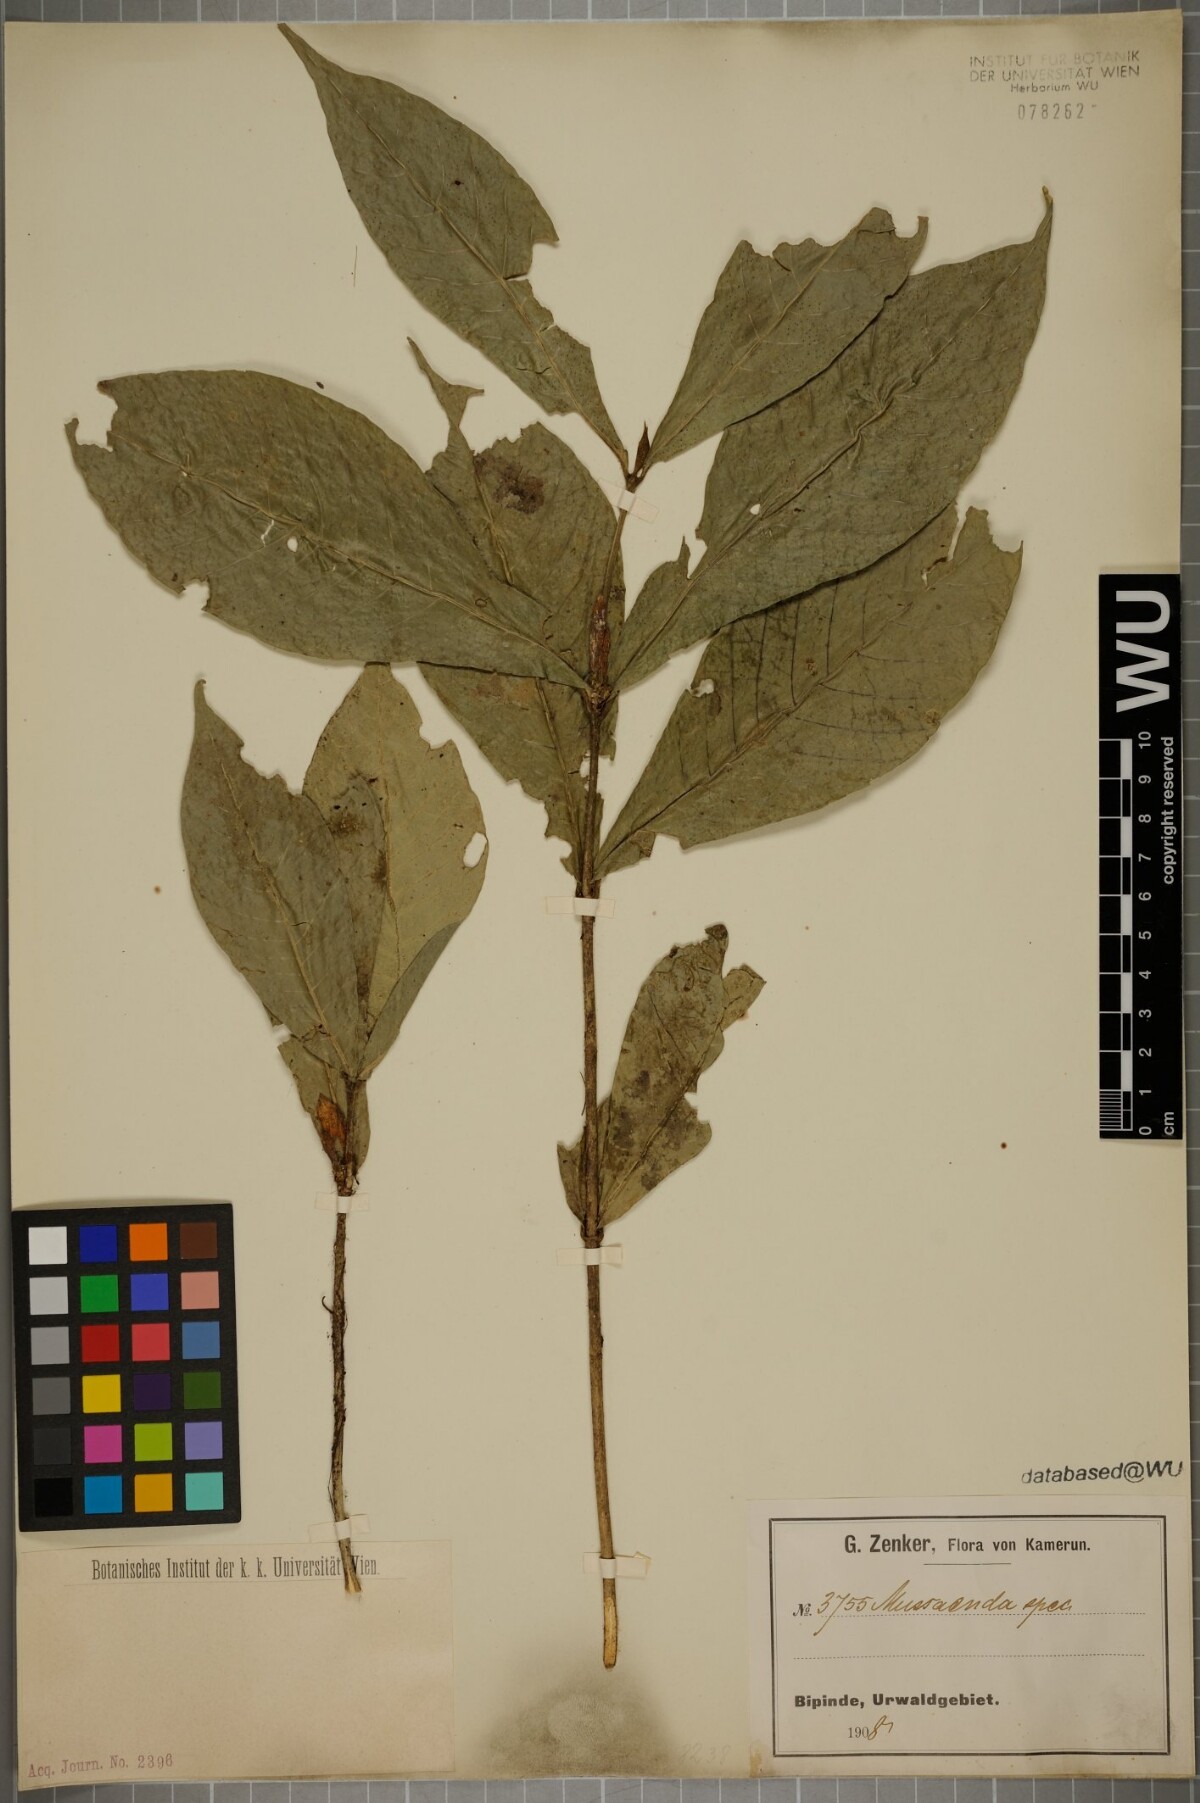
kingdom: Plantae
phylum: Tracheophyta
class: Magnoliopsida
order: Gentianales
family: Rubiaceae
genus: Mussaenda
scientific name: Mussaenda
